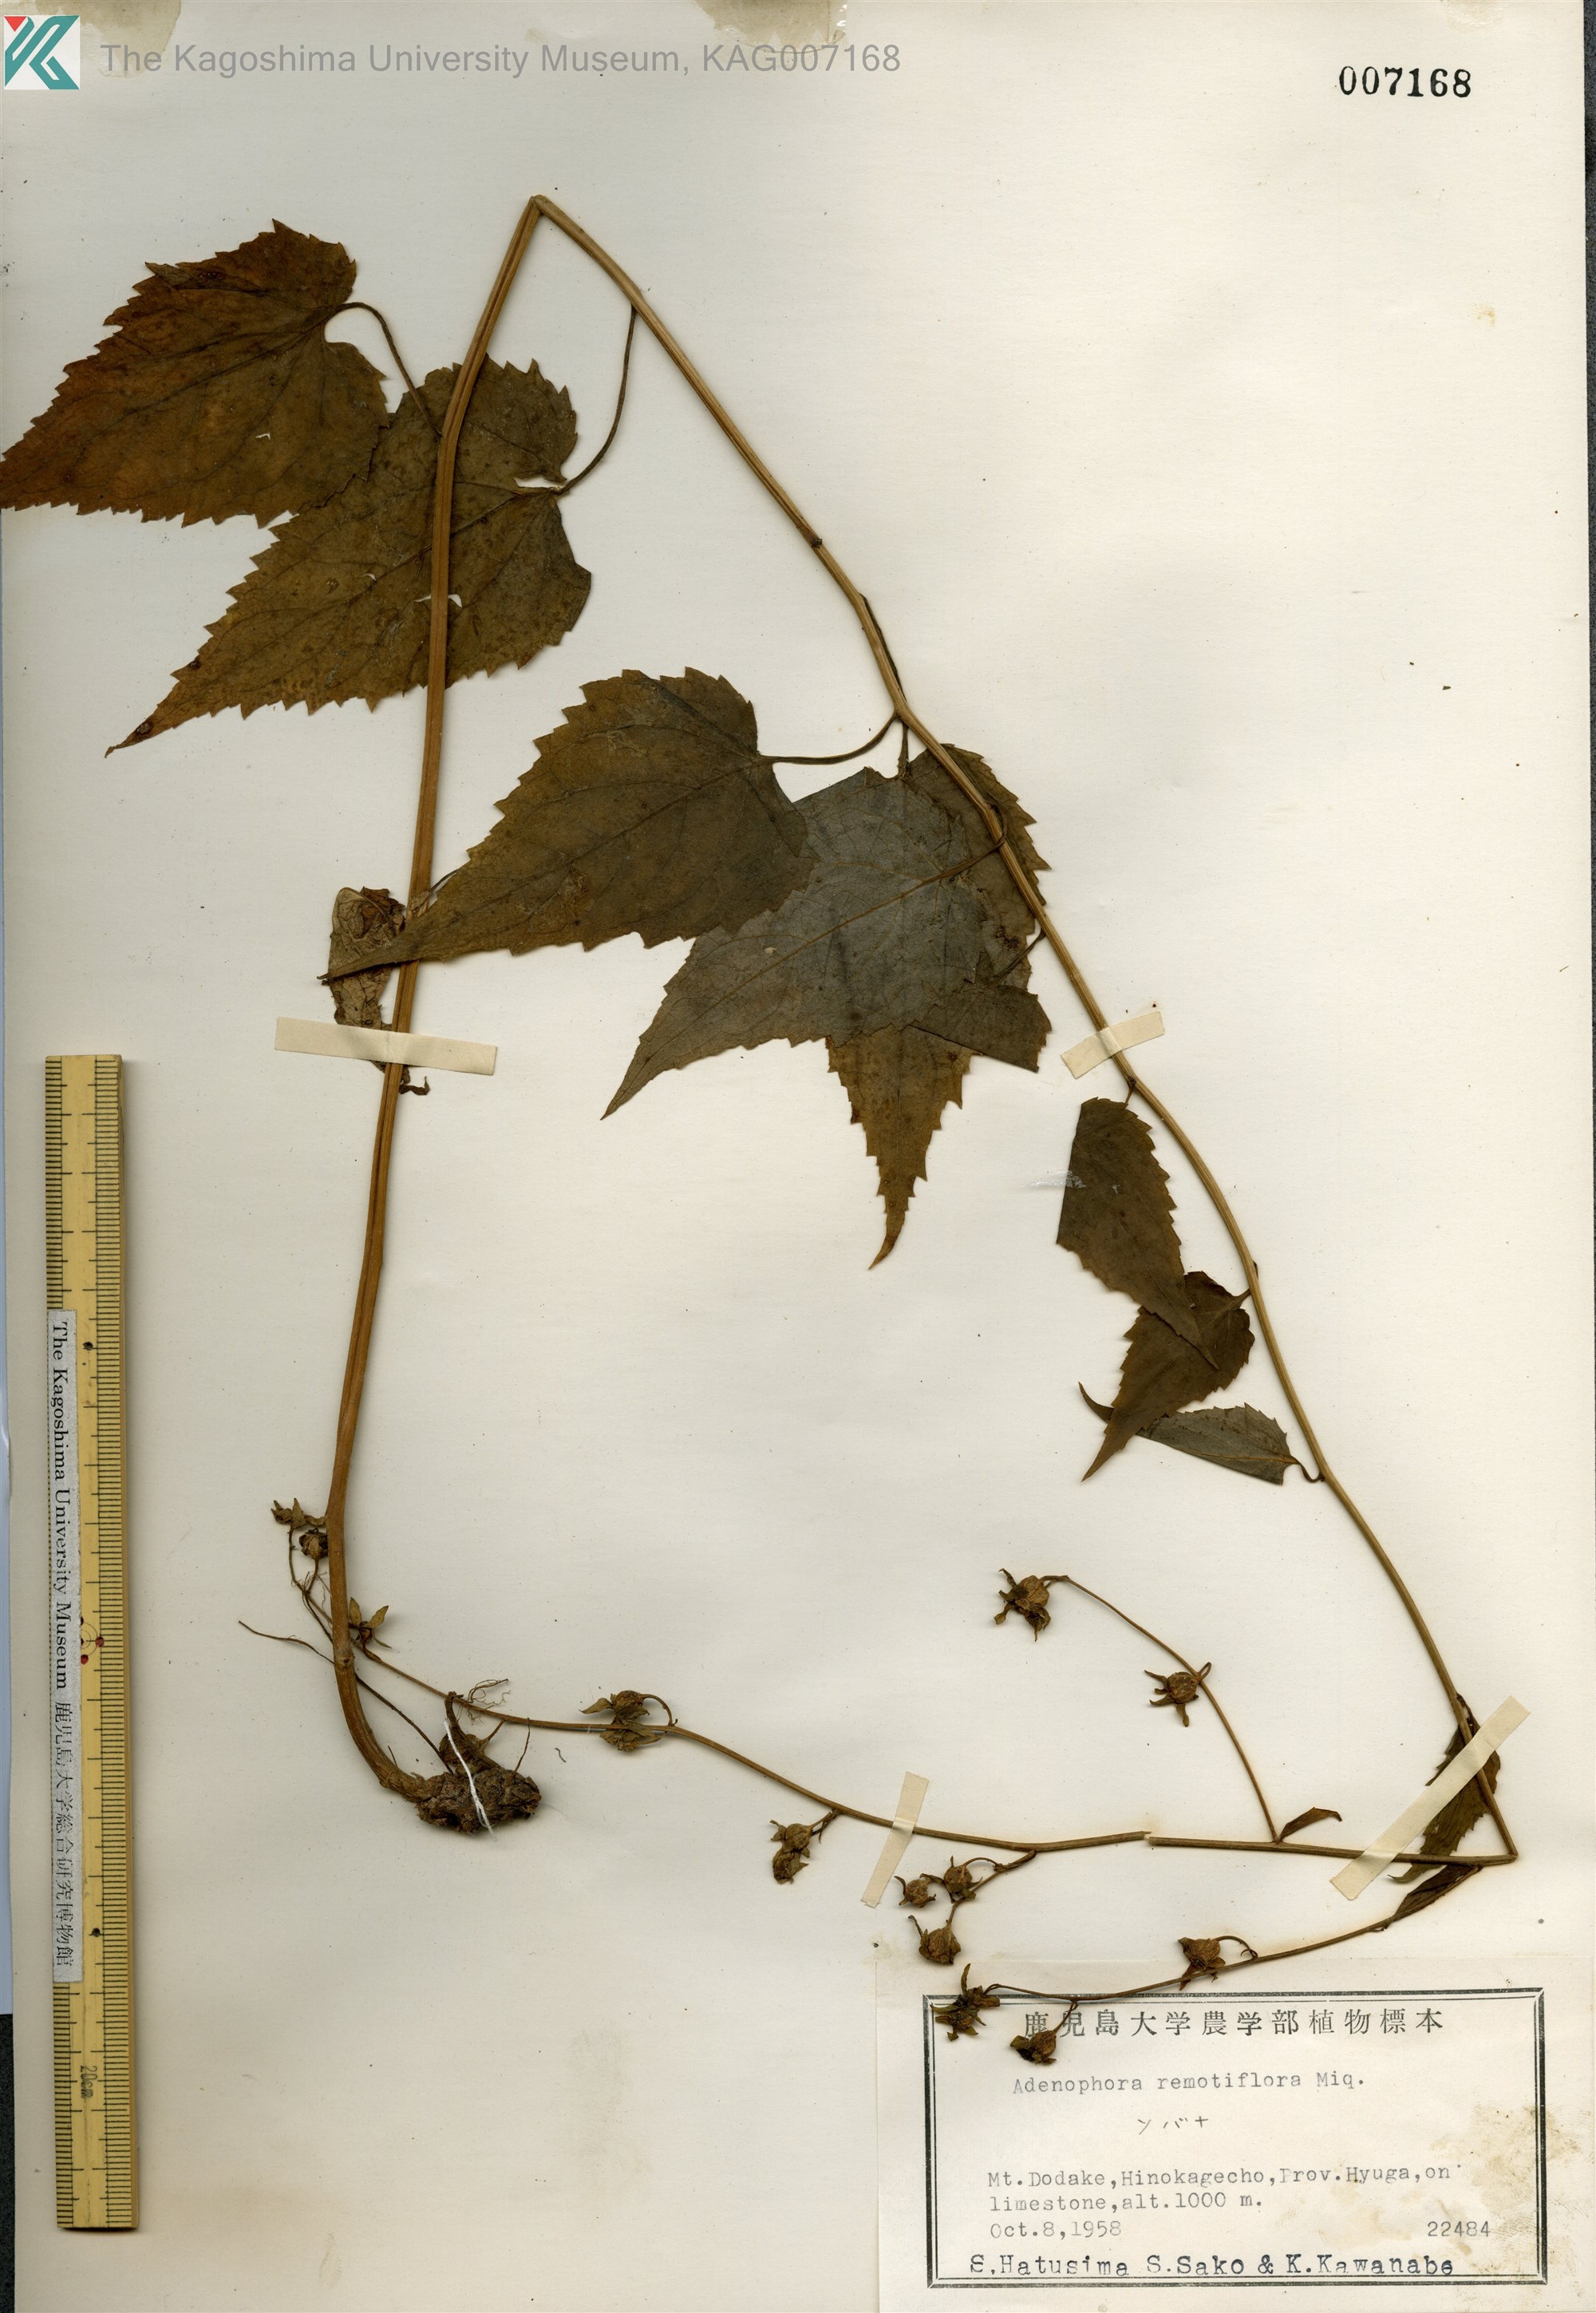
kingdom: Plantae
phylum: Tracheophyta
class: Magnoliopsida
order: Asterales
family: Campanulaceae
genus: Adenophora
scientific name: Adenophora remotiflora
